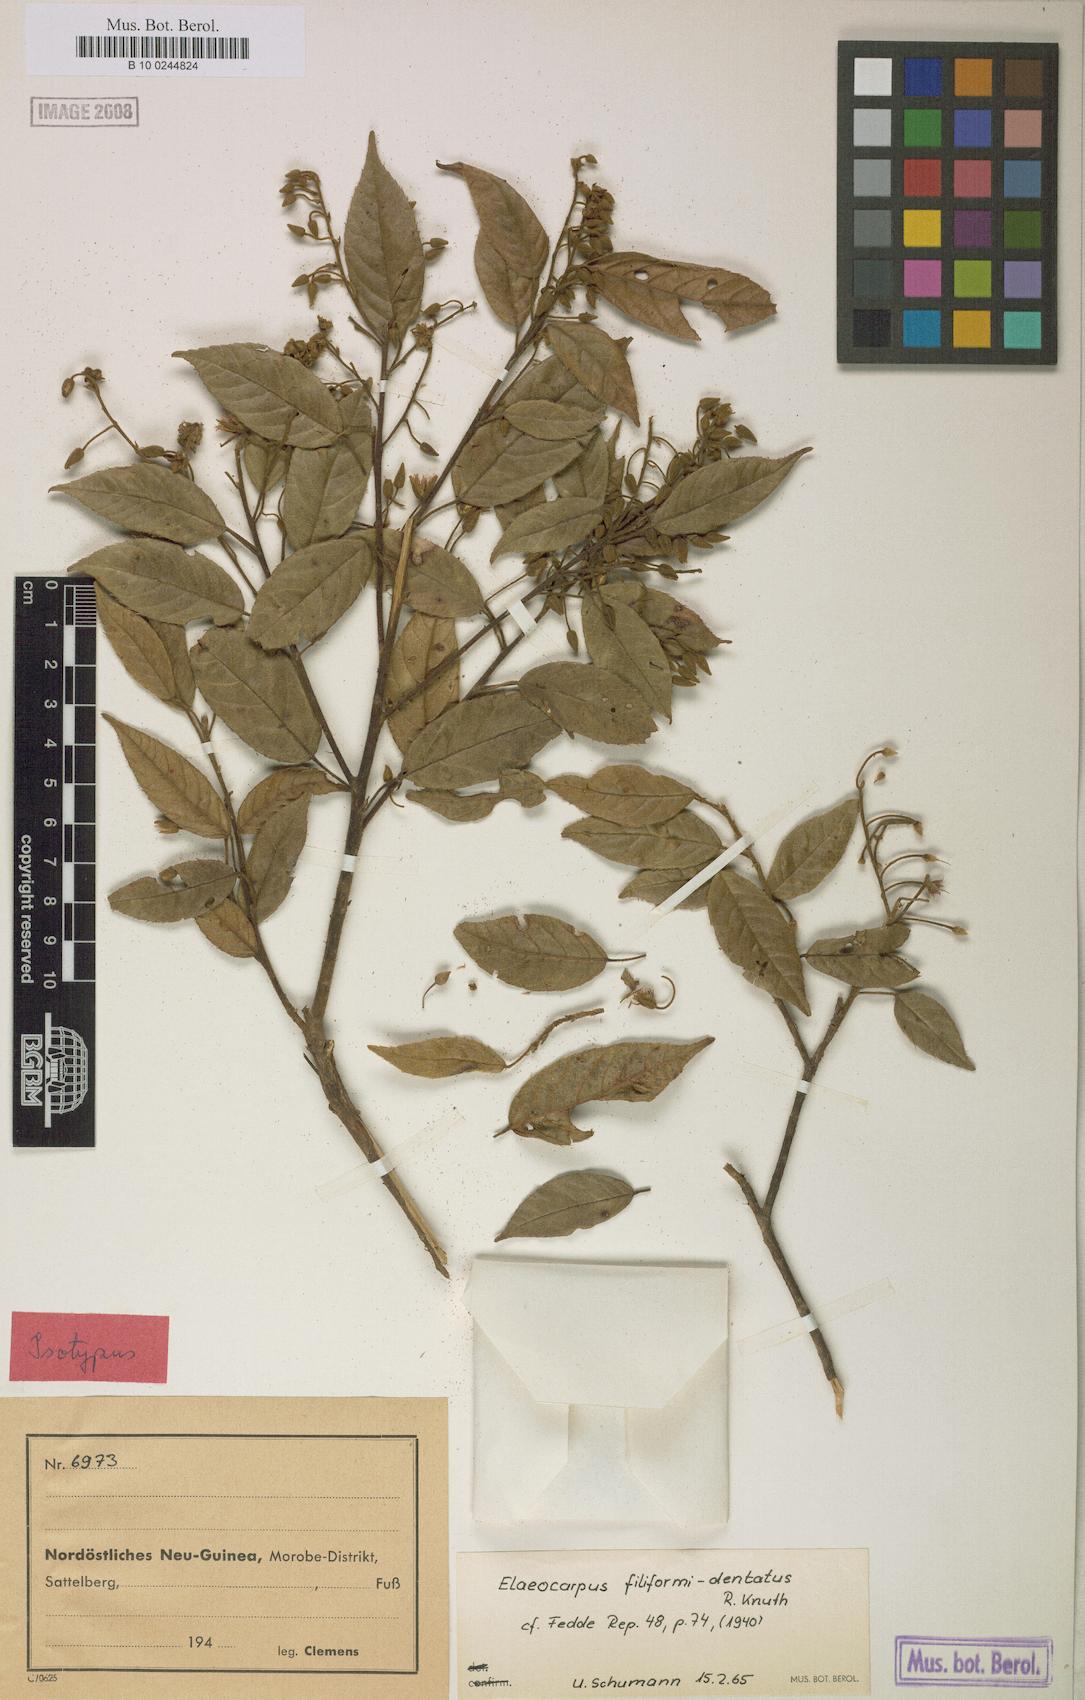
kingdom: Plantae
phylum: Tracheophyta
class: Magnoliopsida
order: Oxalidales
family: Elaeocarpaceae
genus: Elaeocarpus
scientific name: Elaeocarpus filiformidentatus
